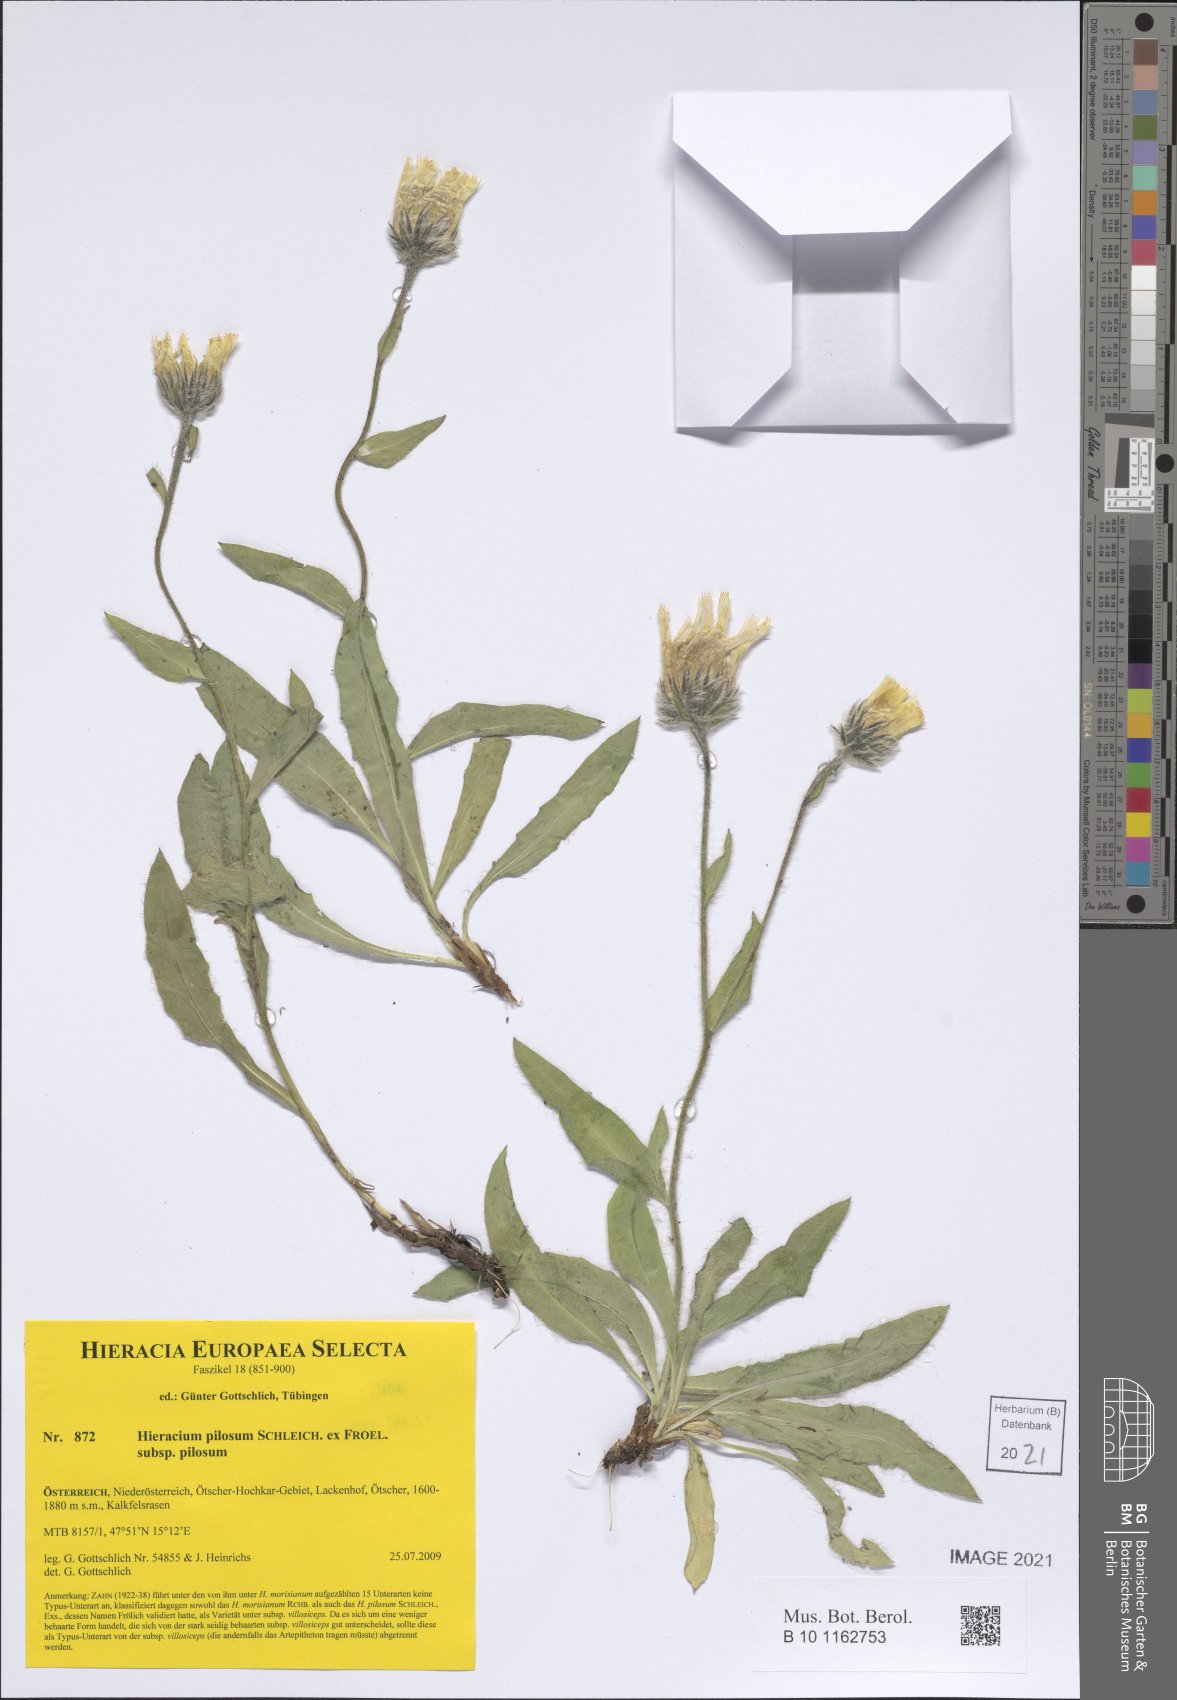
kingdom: Plantae
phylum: Tracheophyta
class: Magnoliopsida
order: Asterales
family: Asteraceae
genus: Hieracium
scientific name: Hieracium pilosum
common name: Fimbriate-pitted hawkweed
